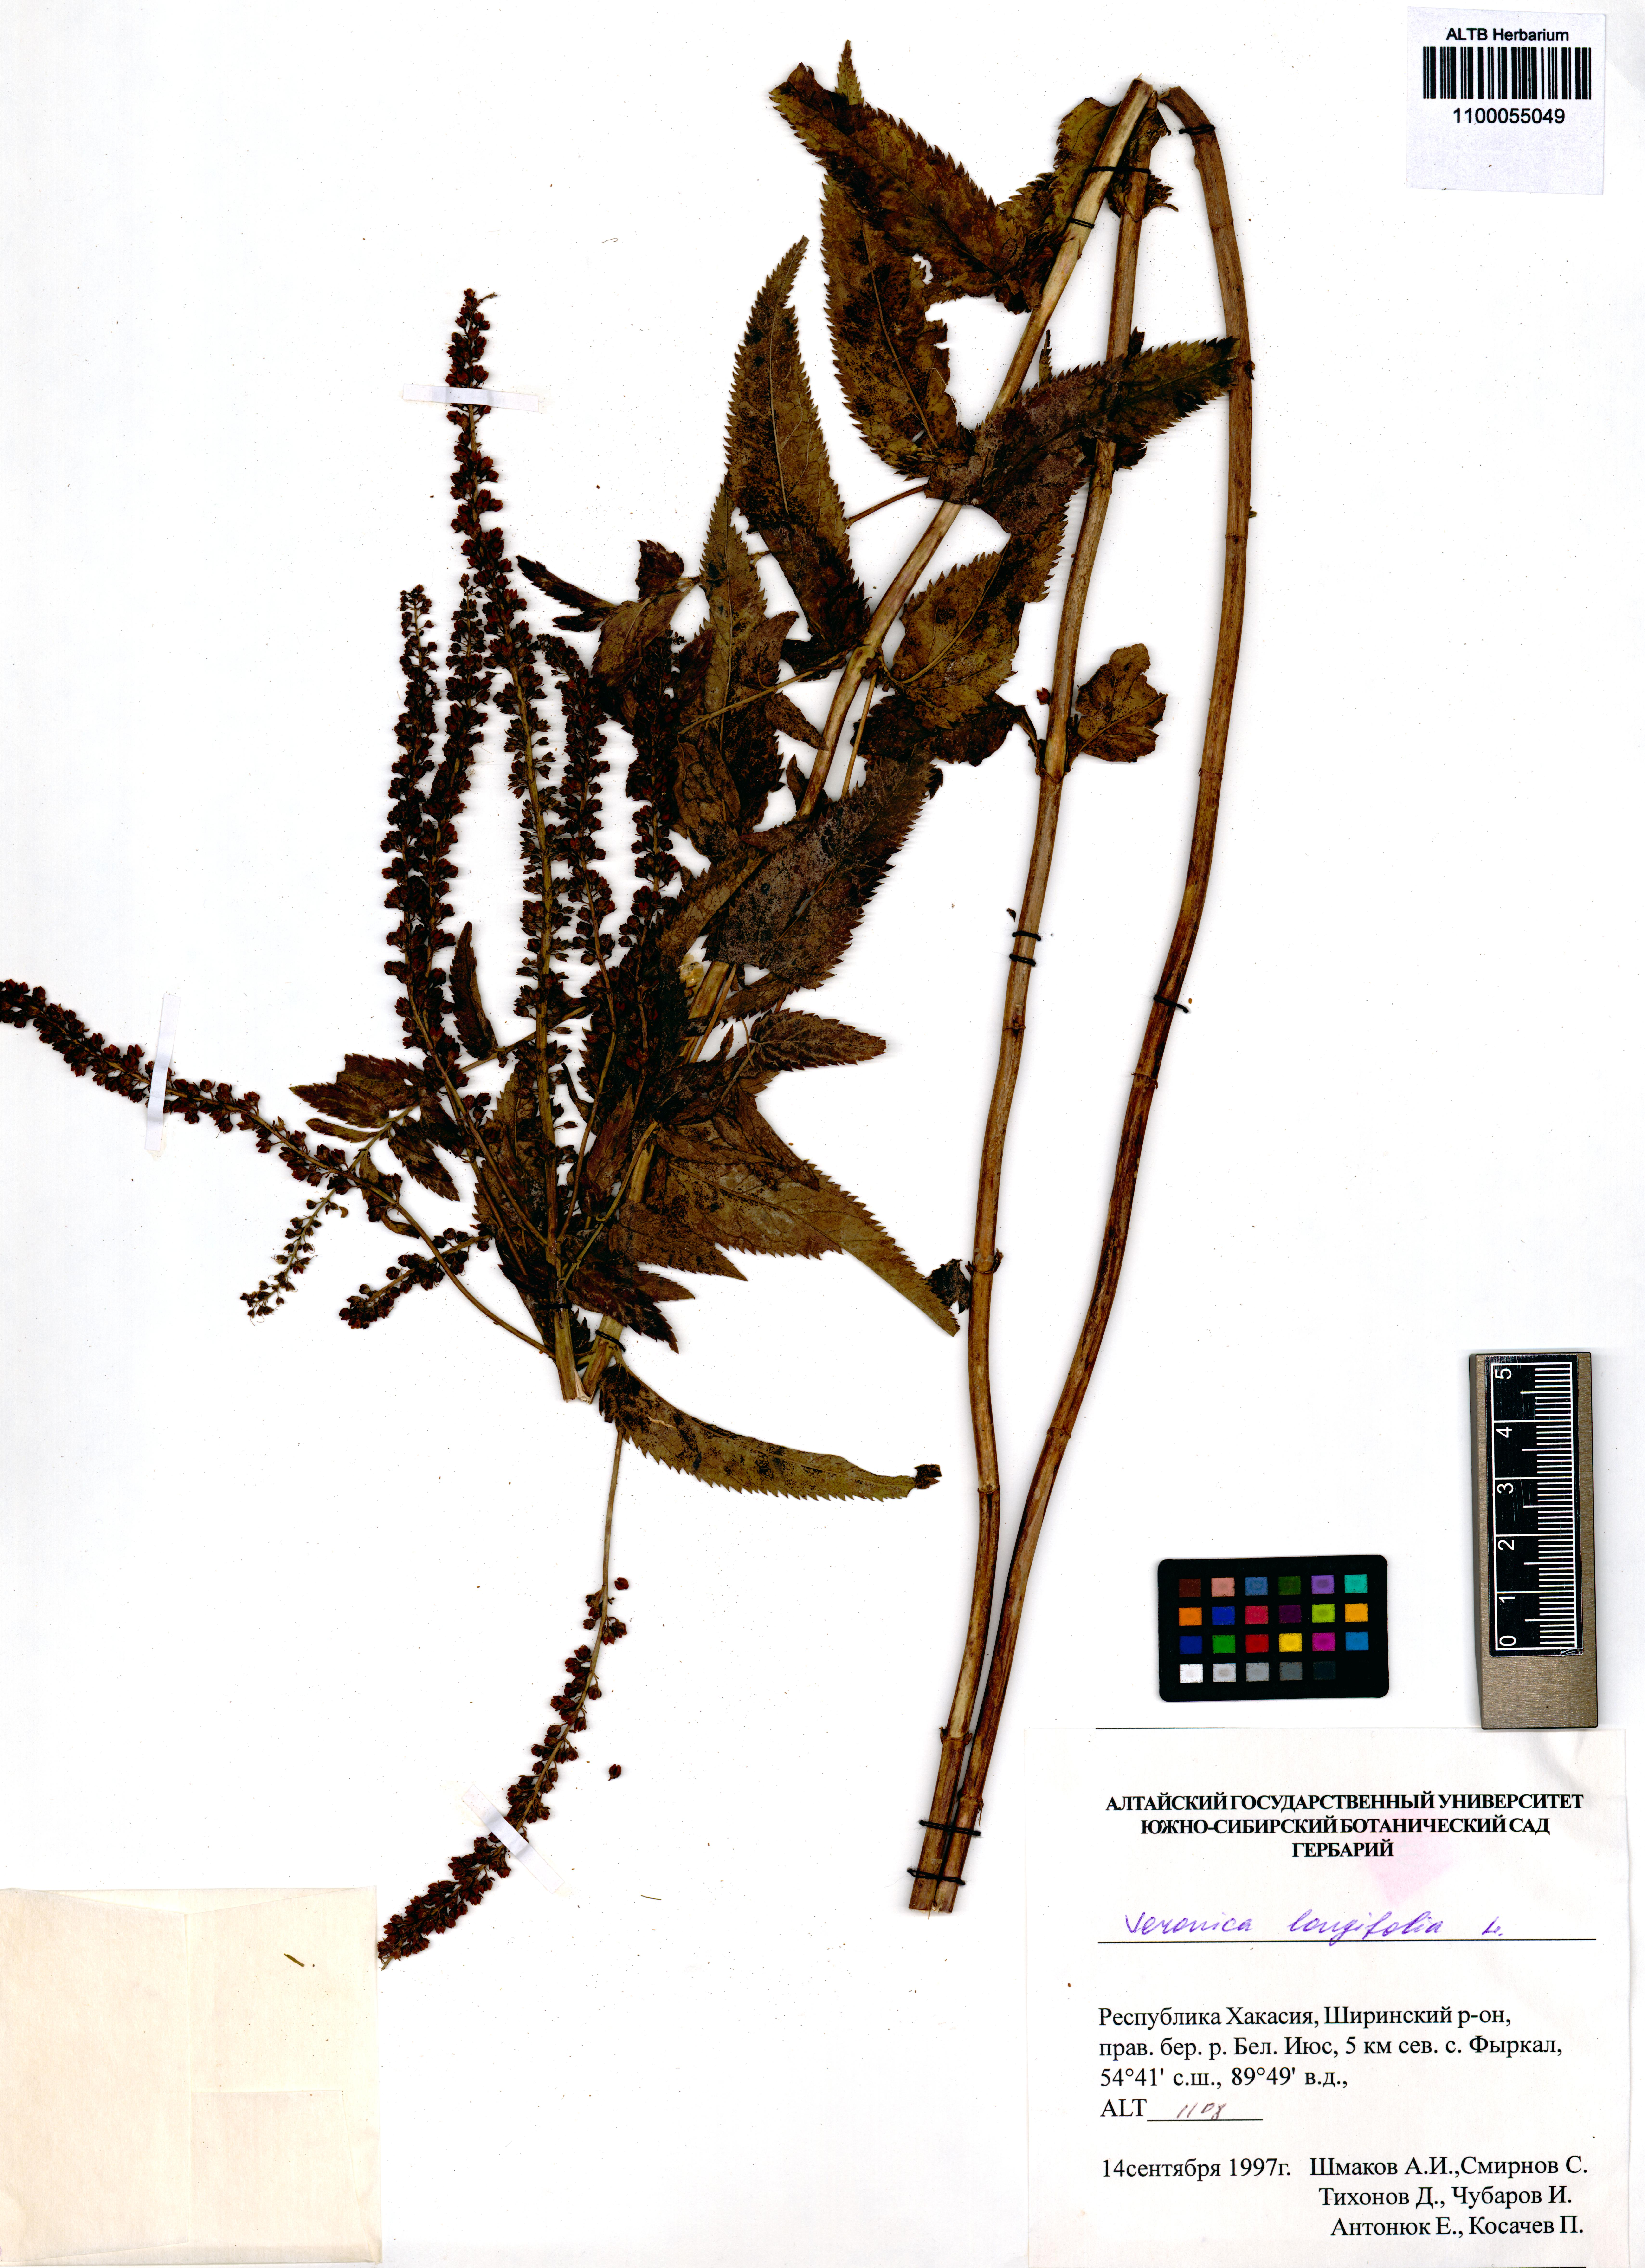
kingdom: Plantae
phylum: Tracheophyta
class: Magnoliopsida
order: Lamiales
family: Plantaginaceae
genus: Veronica
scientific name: Veronica longifolia
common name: Garden speedwell
